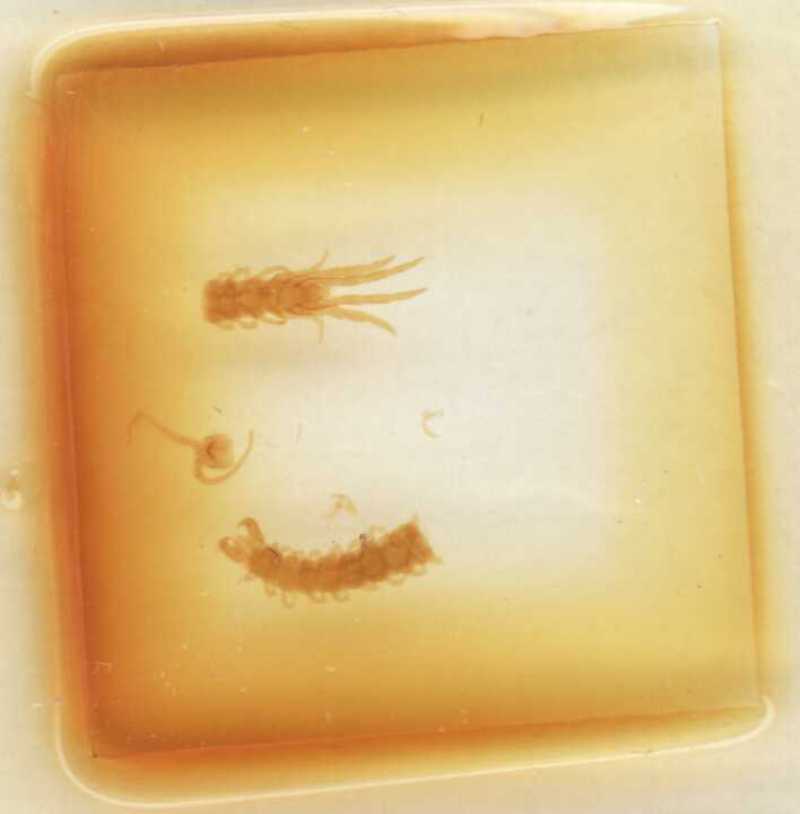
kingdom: Animalia
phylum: Arthropoda
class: Chilopoda
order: Lithobiomorpha
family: Lithobiidae
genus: Monotarsobius
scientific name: Monotarsobius
